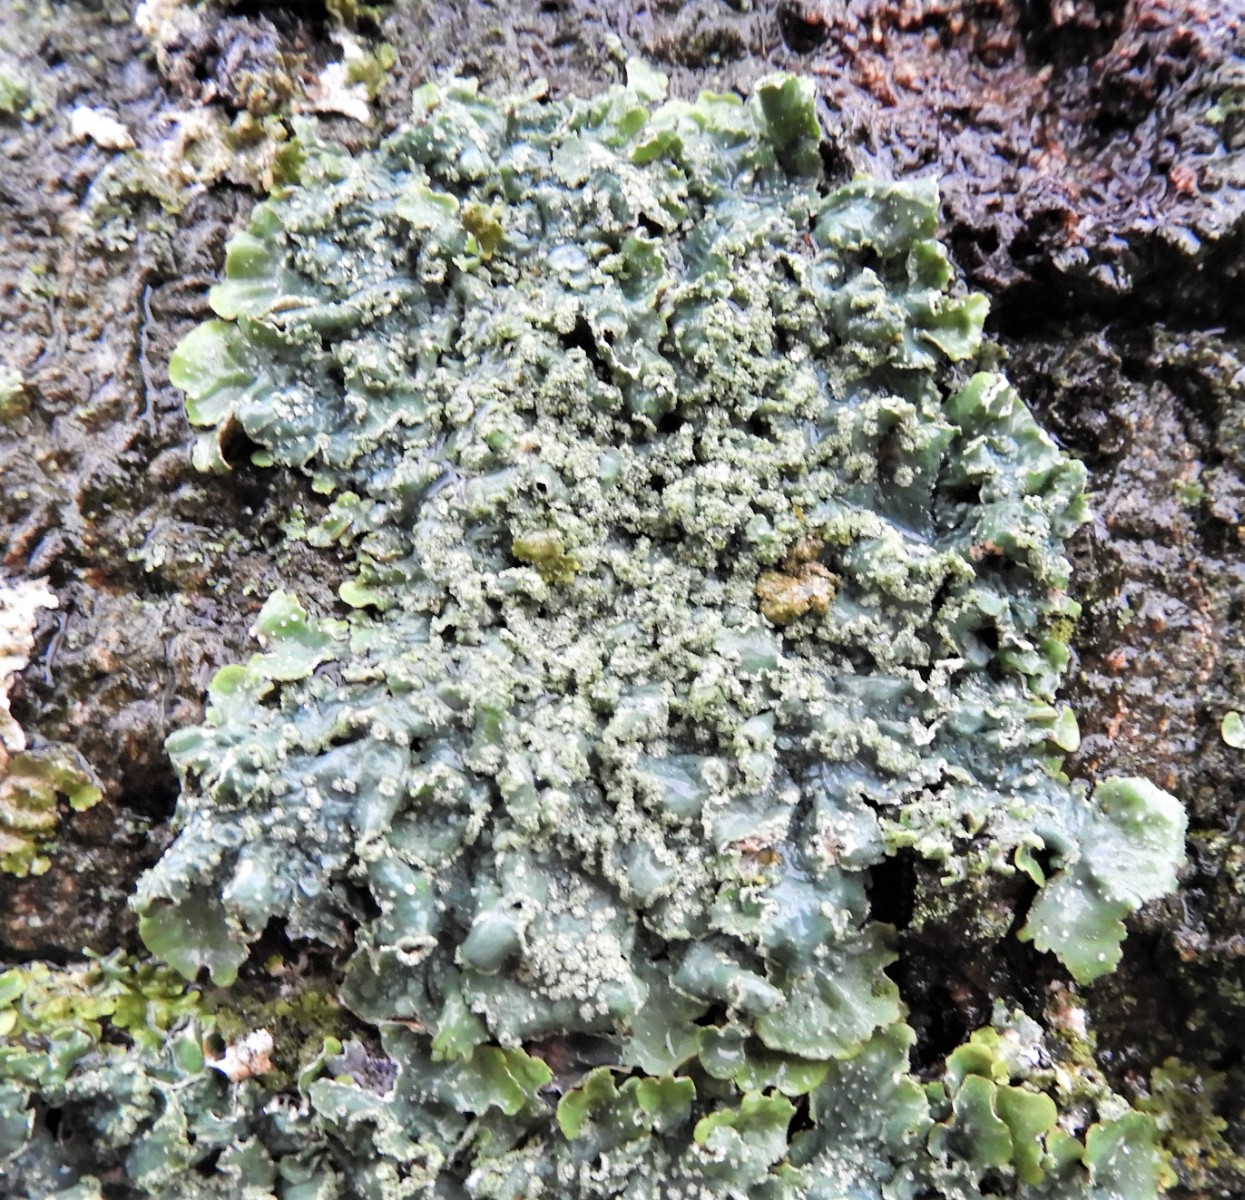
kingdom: Fungi
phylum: Ascomycota
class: Lecanoromycetes
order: Lecanorales
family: Parmeliaceae
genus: Punctelia
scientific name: Punctelia subrudecta
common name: punkt-skållav
